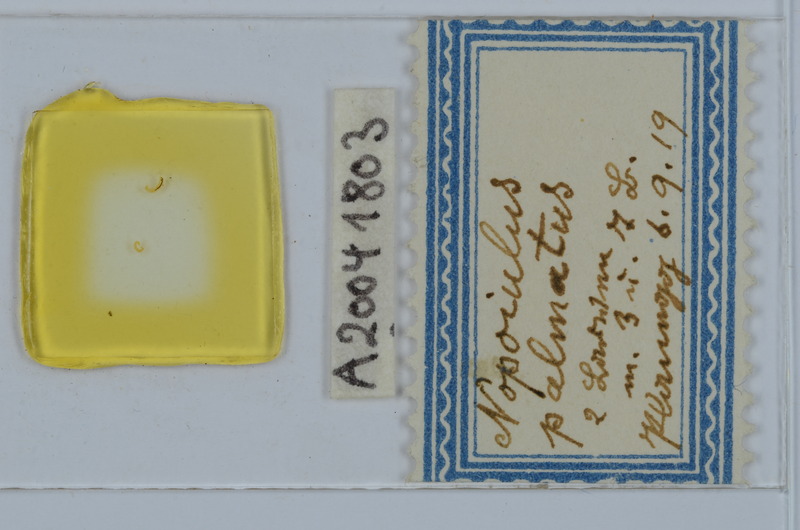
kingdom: Animalia
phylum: Arthropoda
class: Diplopoda
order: Julida
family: Blaniulidae
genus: Nopoiulus
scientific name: Nopoiulus palmatus
